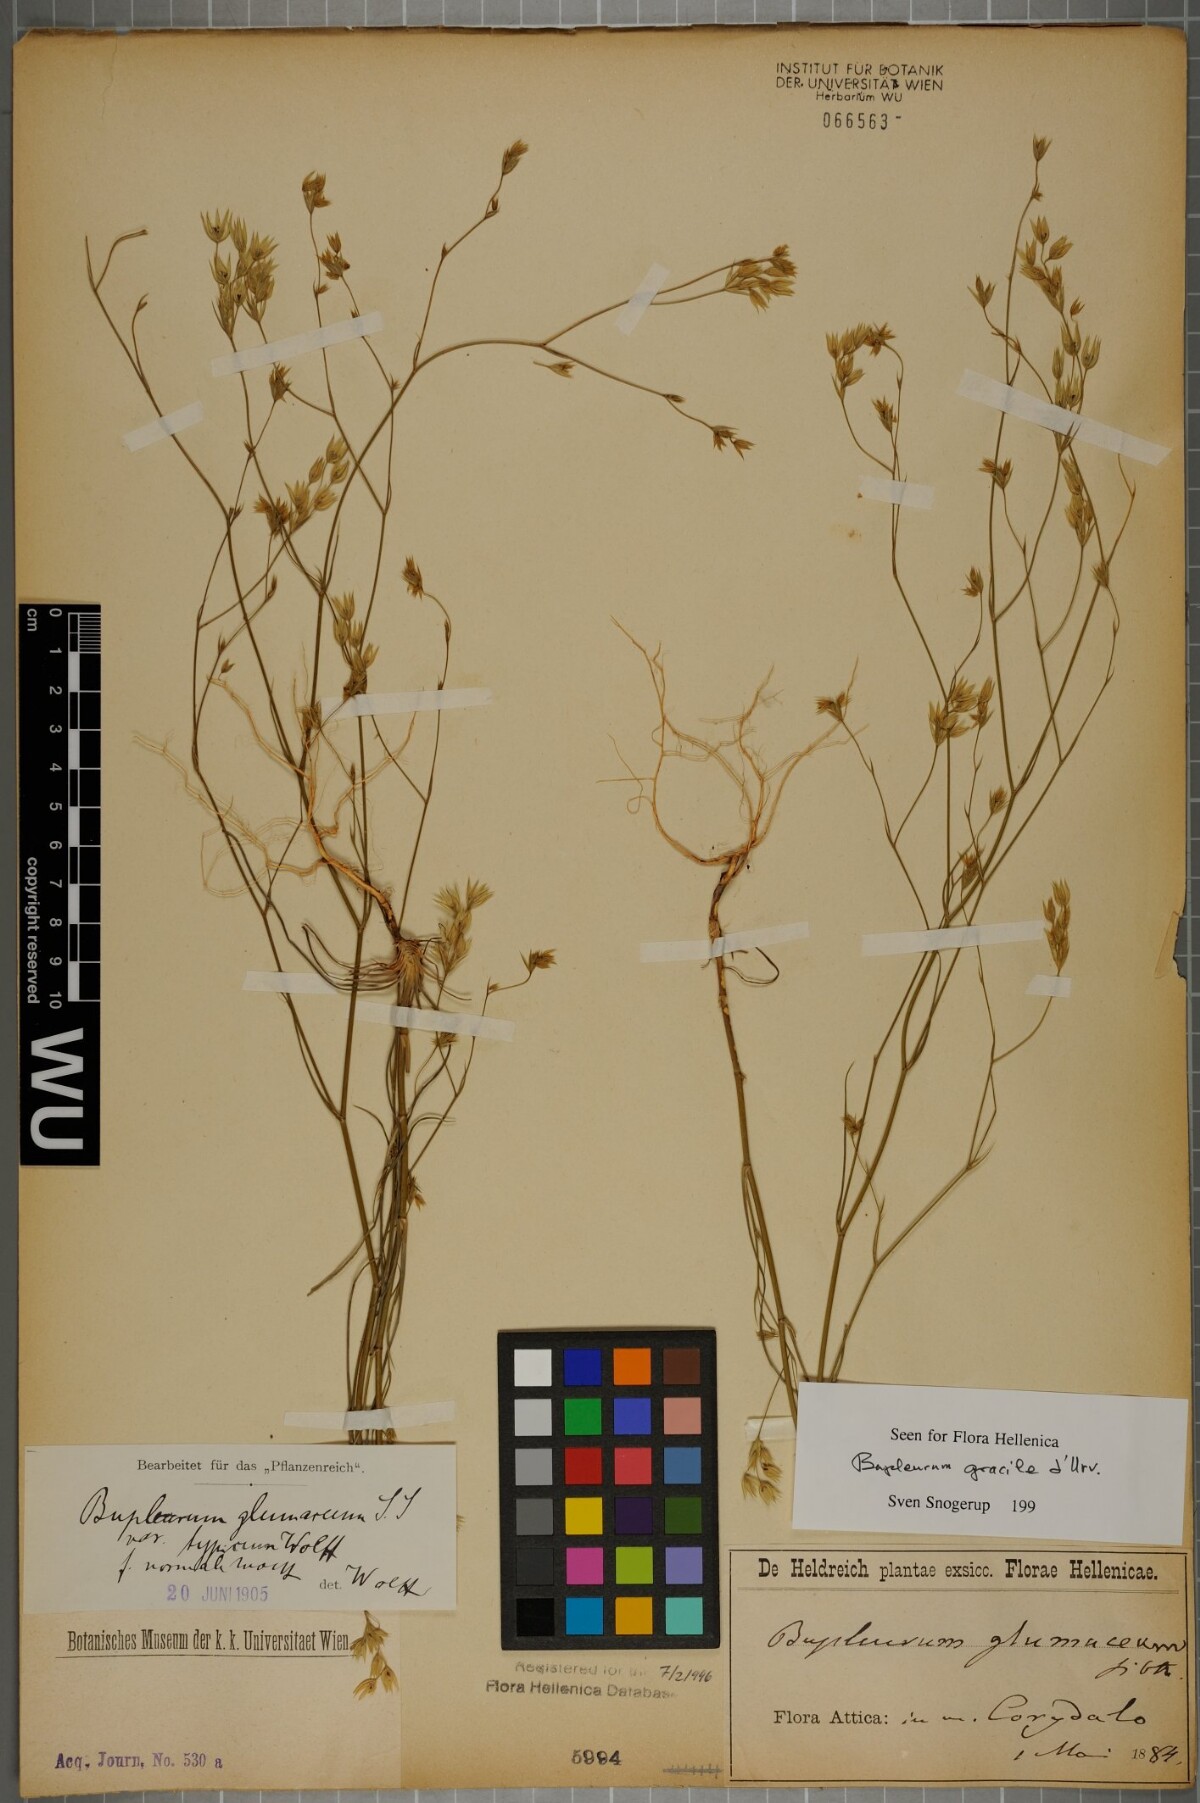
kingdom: Plantae
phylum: Tracheophyta
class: Magnoliopsida
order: Apiales
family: Apiaceae
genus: Bupleurum
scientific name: Bupleurum gracile
